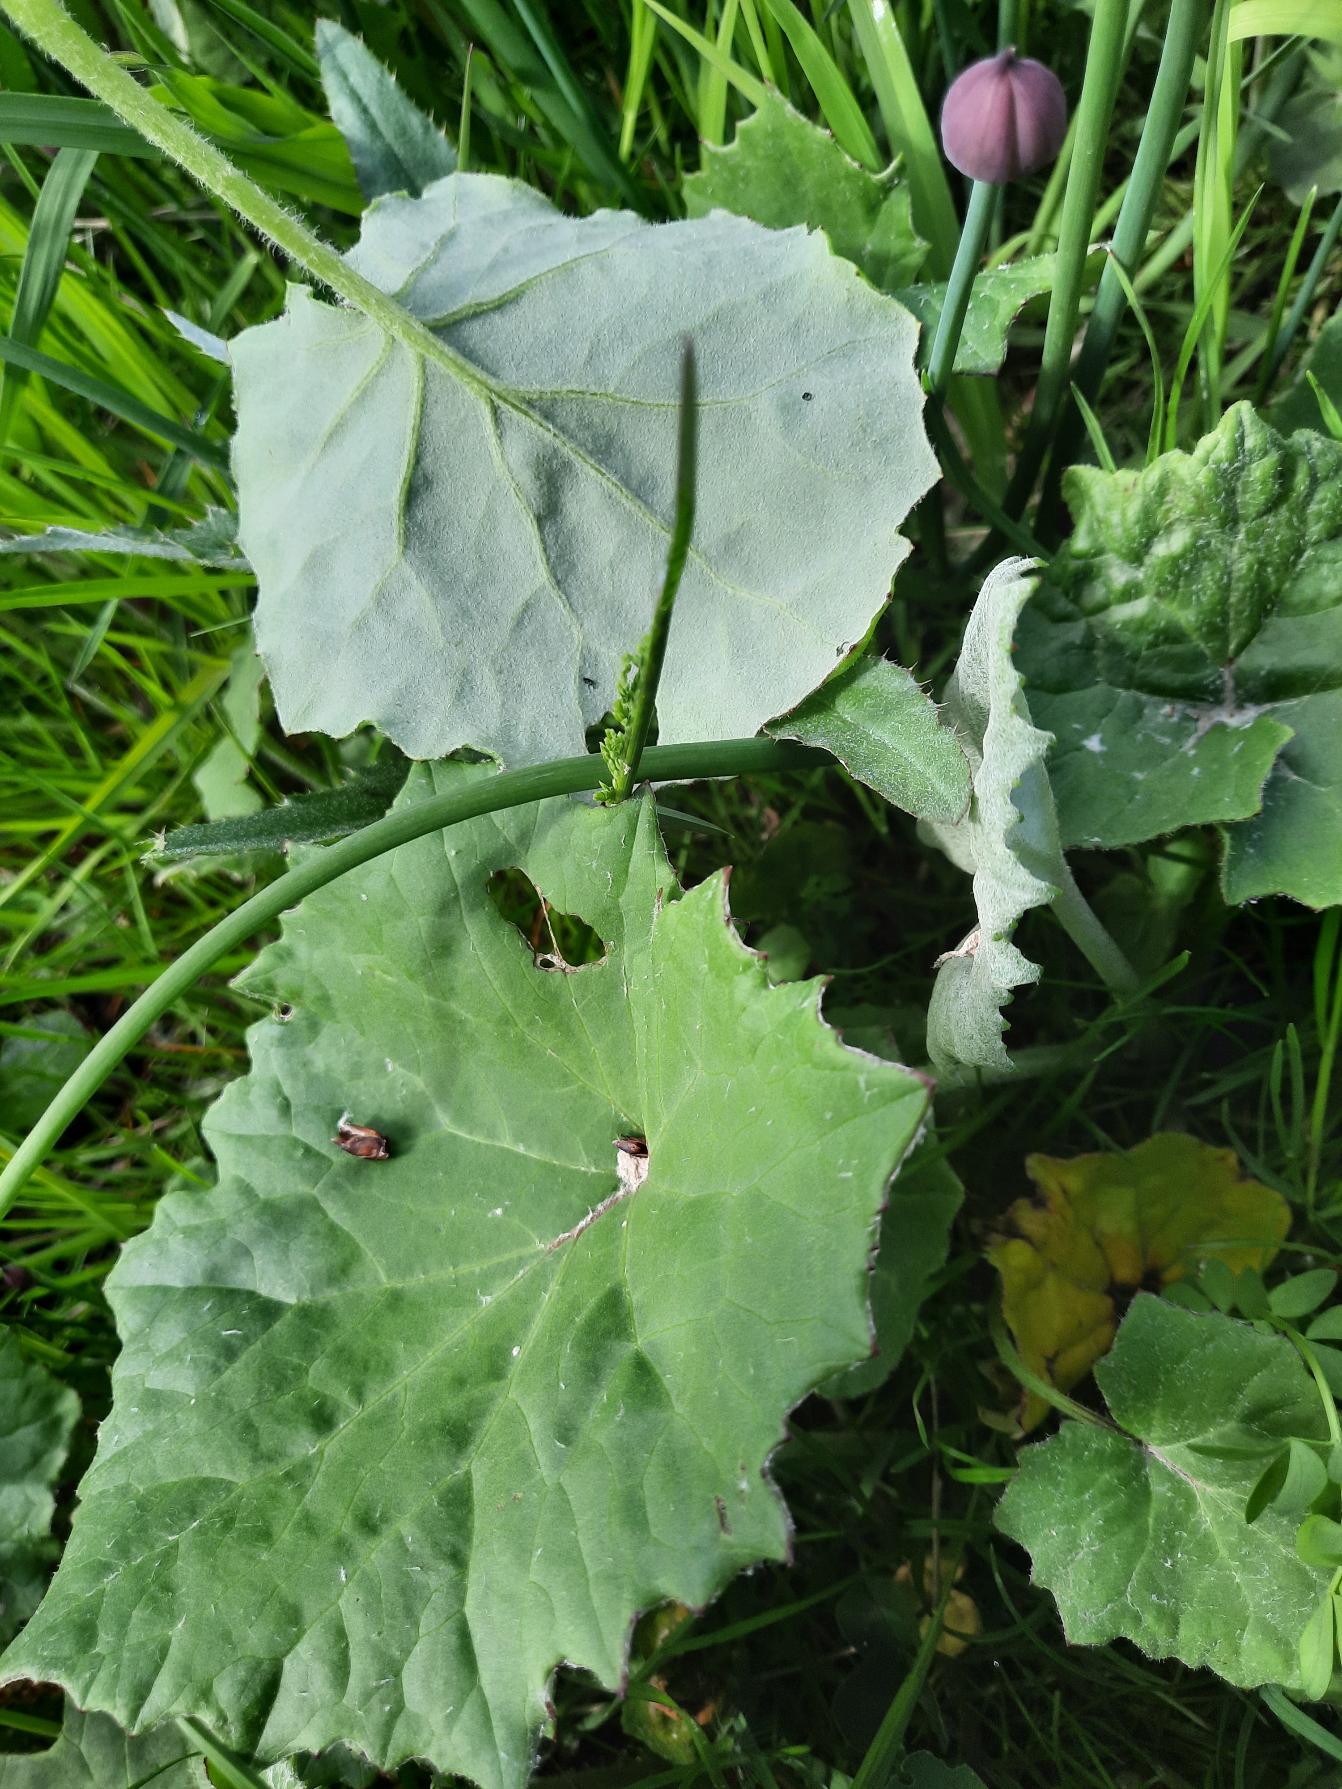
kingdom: Plantae
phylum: Tracheophyta
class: Magnoliopsida
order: Asterales
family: Asteraceae
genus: Tussilago
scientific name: Tussilago farfara
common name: Følfod
